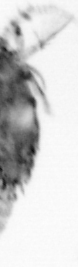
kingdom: Animalia
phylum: Arthropoda
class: Copepoda
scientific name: Copepoda
